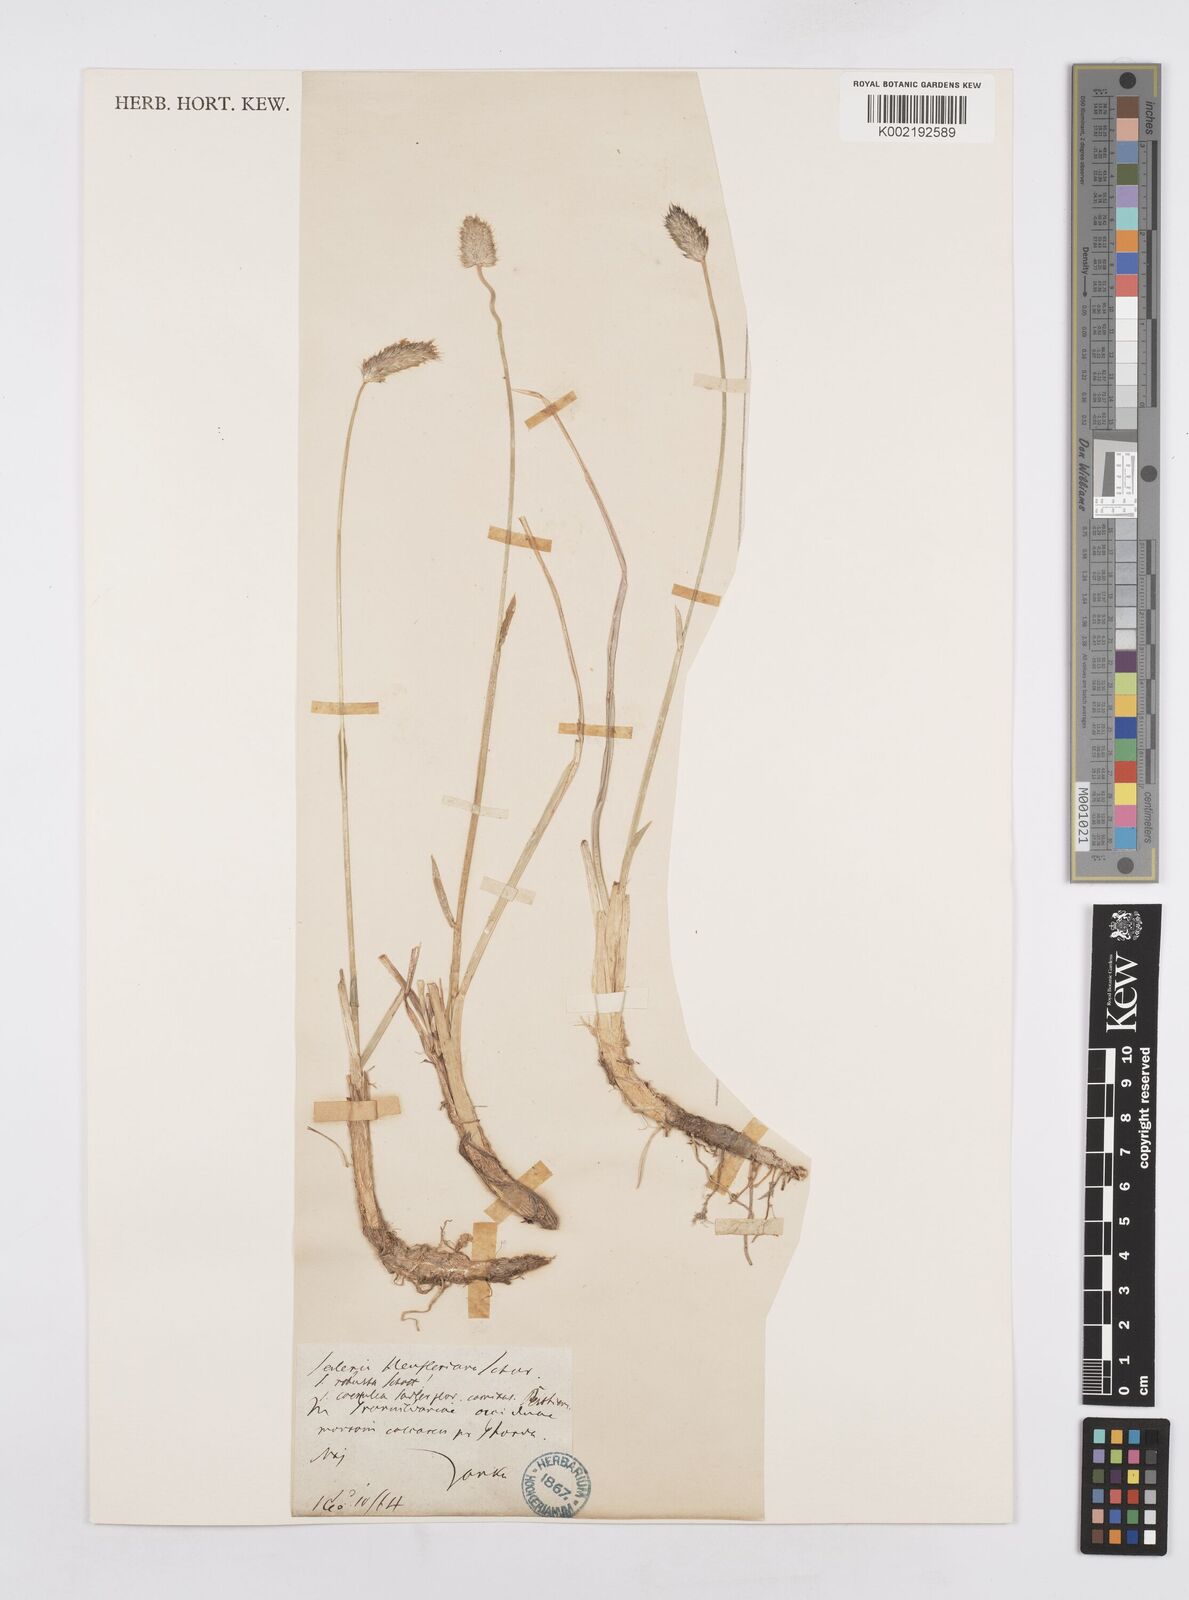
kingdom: Plantae
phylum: Tracheophyta
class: Liliopsida
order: Poales
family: Poaceae
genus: Sesleria
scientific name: Sesleria heufleriana
